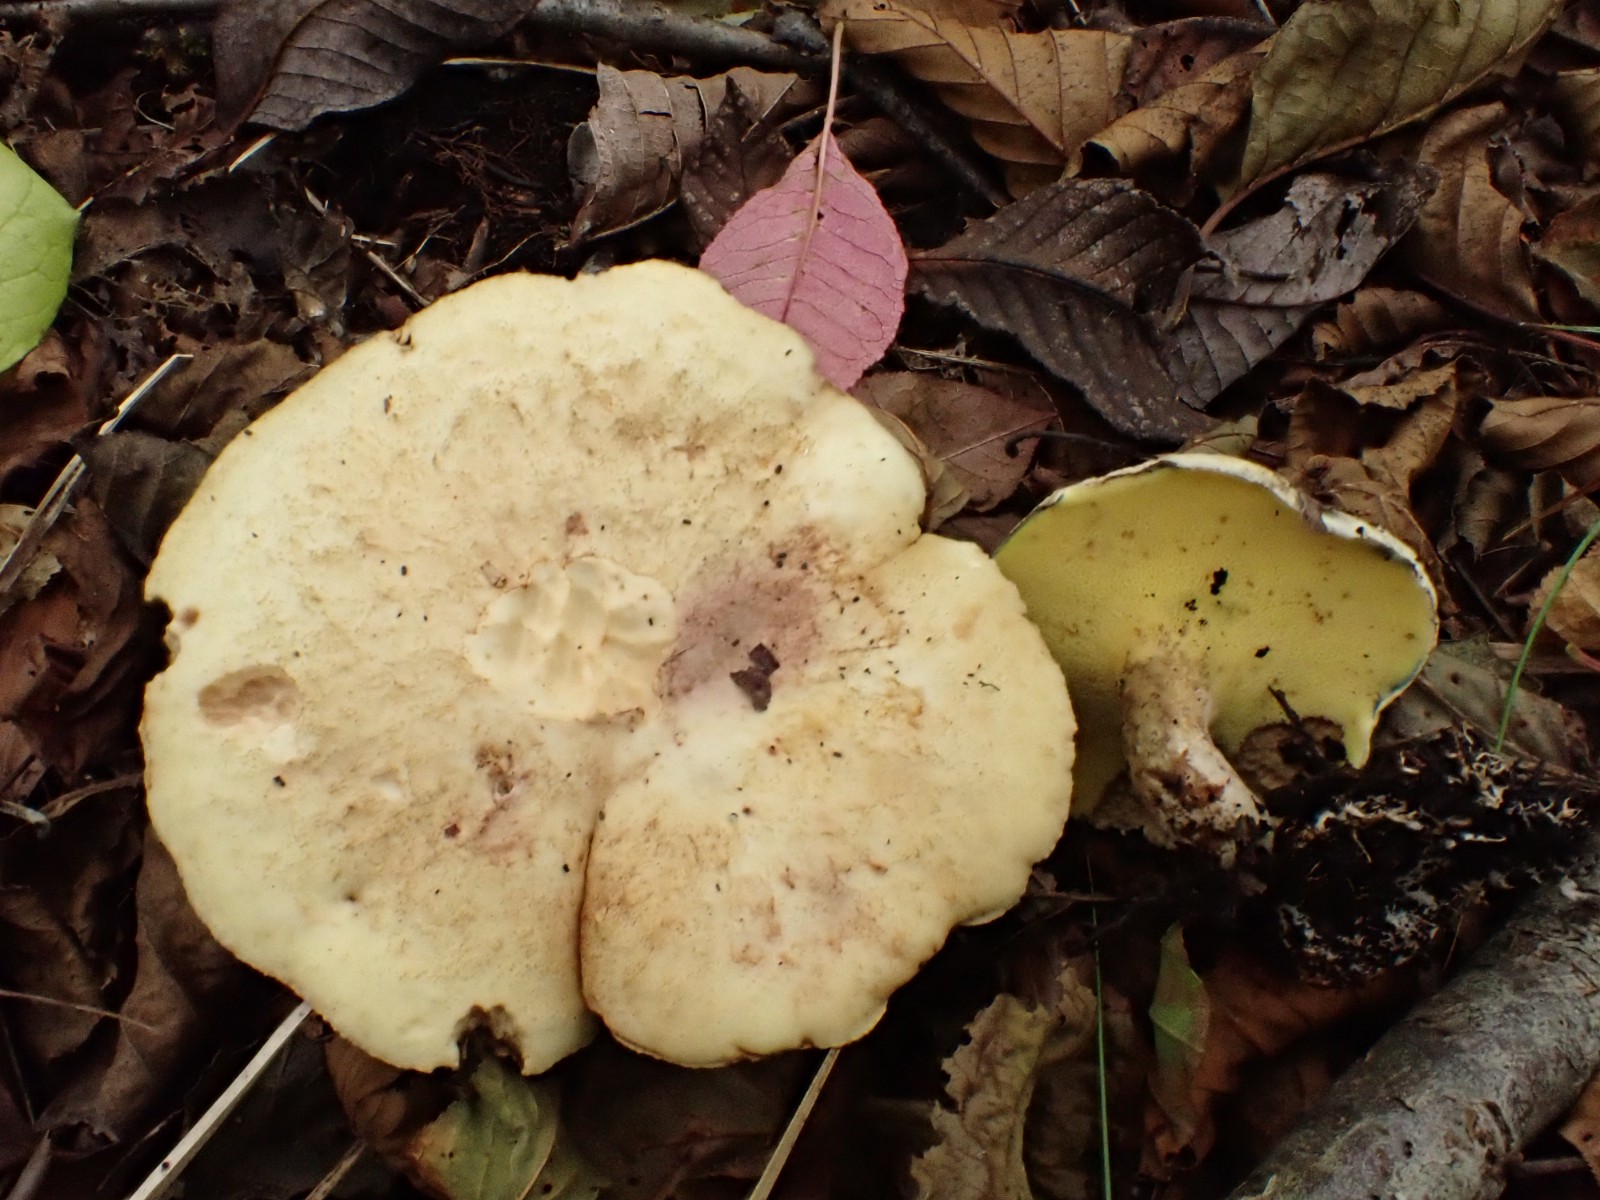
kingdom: Fungi
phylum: Basidiomycota
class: Agaricomycetes
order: Boletales
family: Paxillaceae
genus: Gyrodon
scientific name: Gyrodon lividus
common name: ellerørhat
